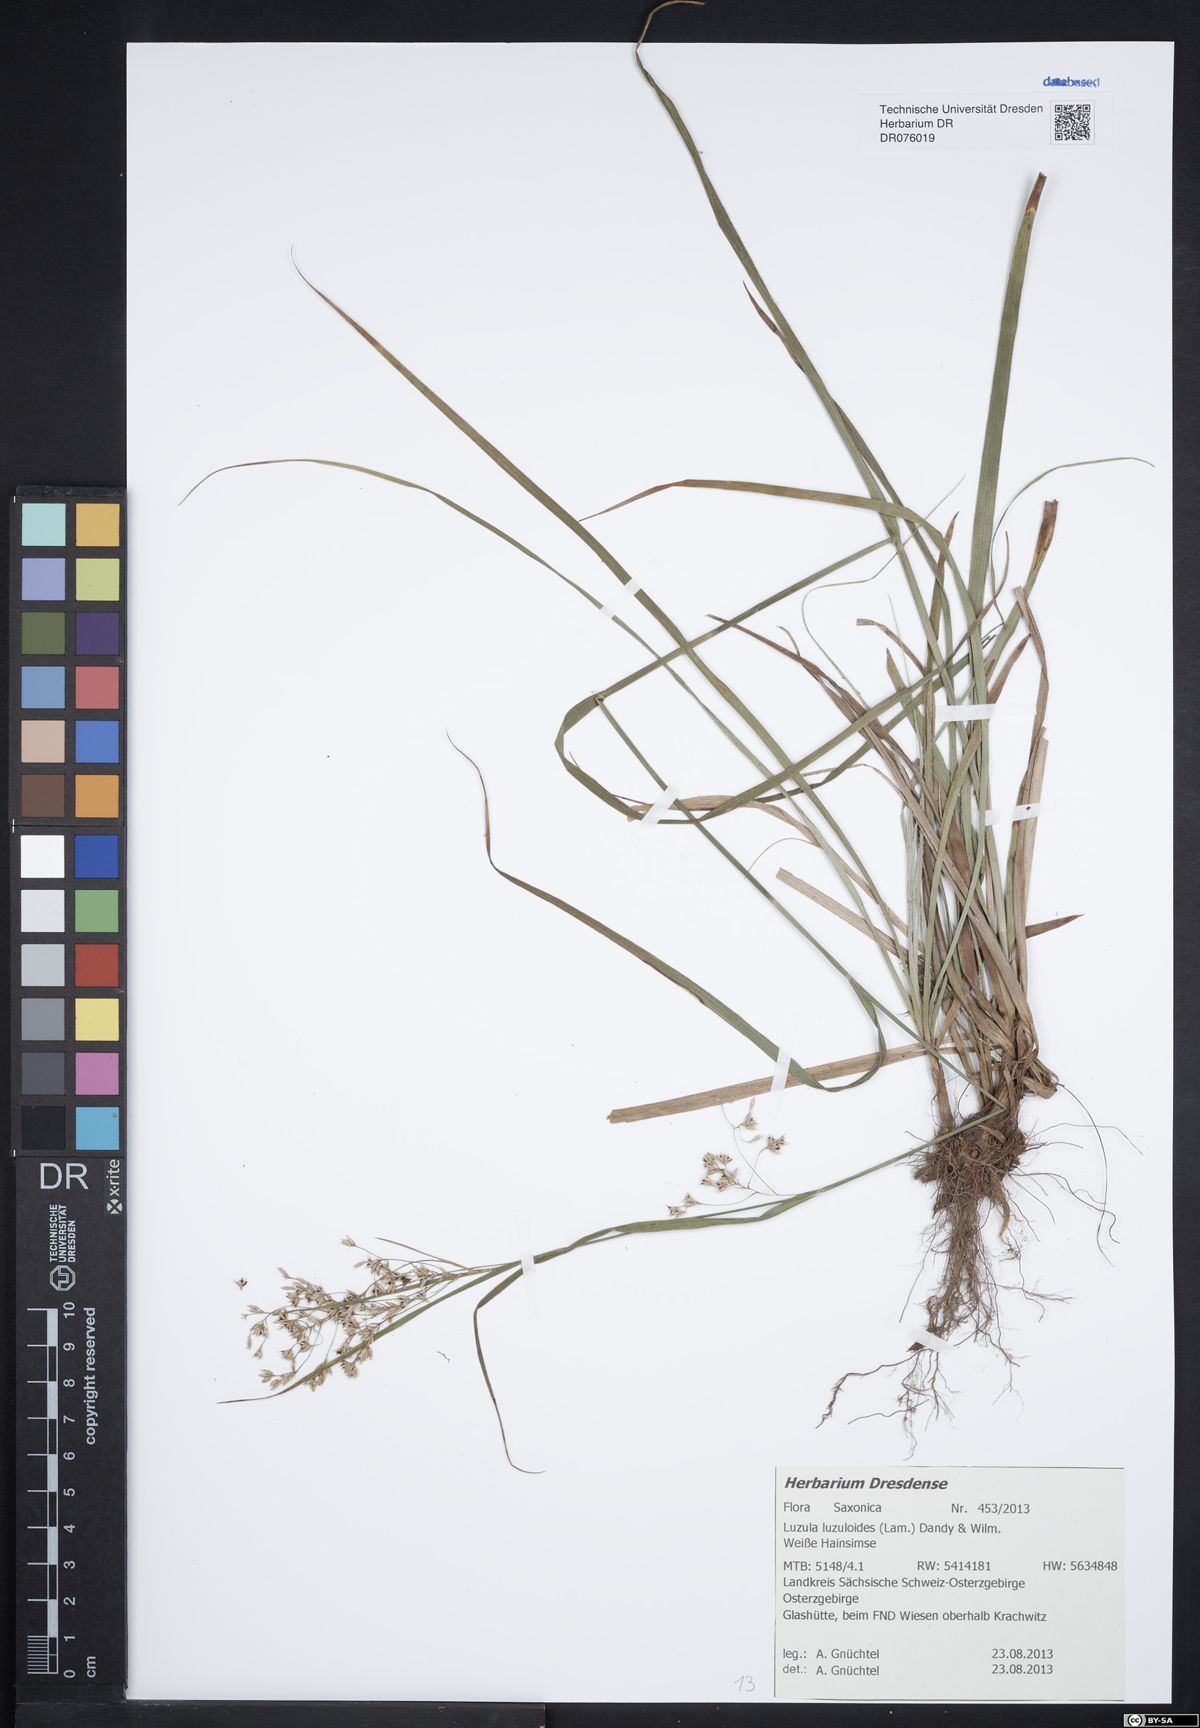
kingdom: Plantae
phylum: Tracheophyta
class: Liliopsida
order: Poales
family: Juncaceae
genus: Luzula
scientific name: Luzula luzuloides
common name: White wood-rush
